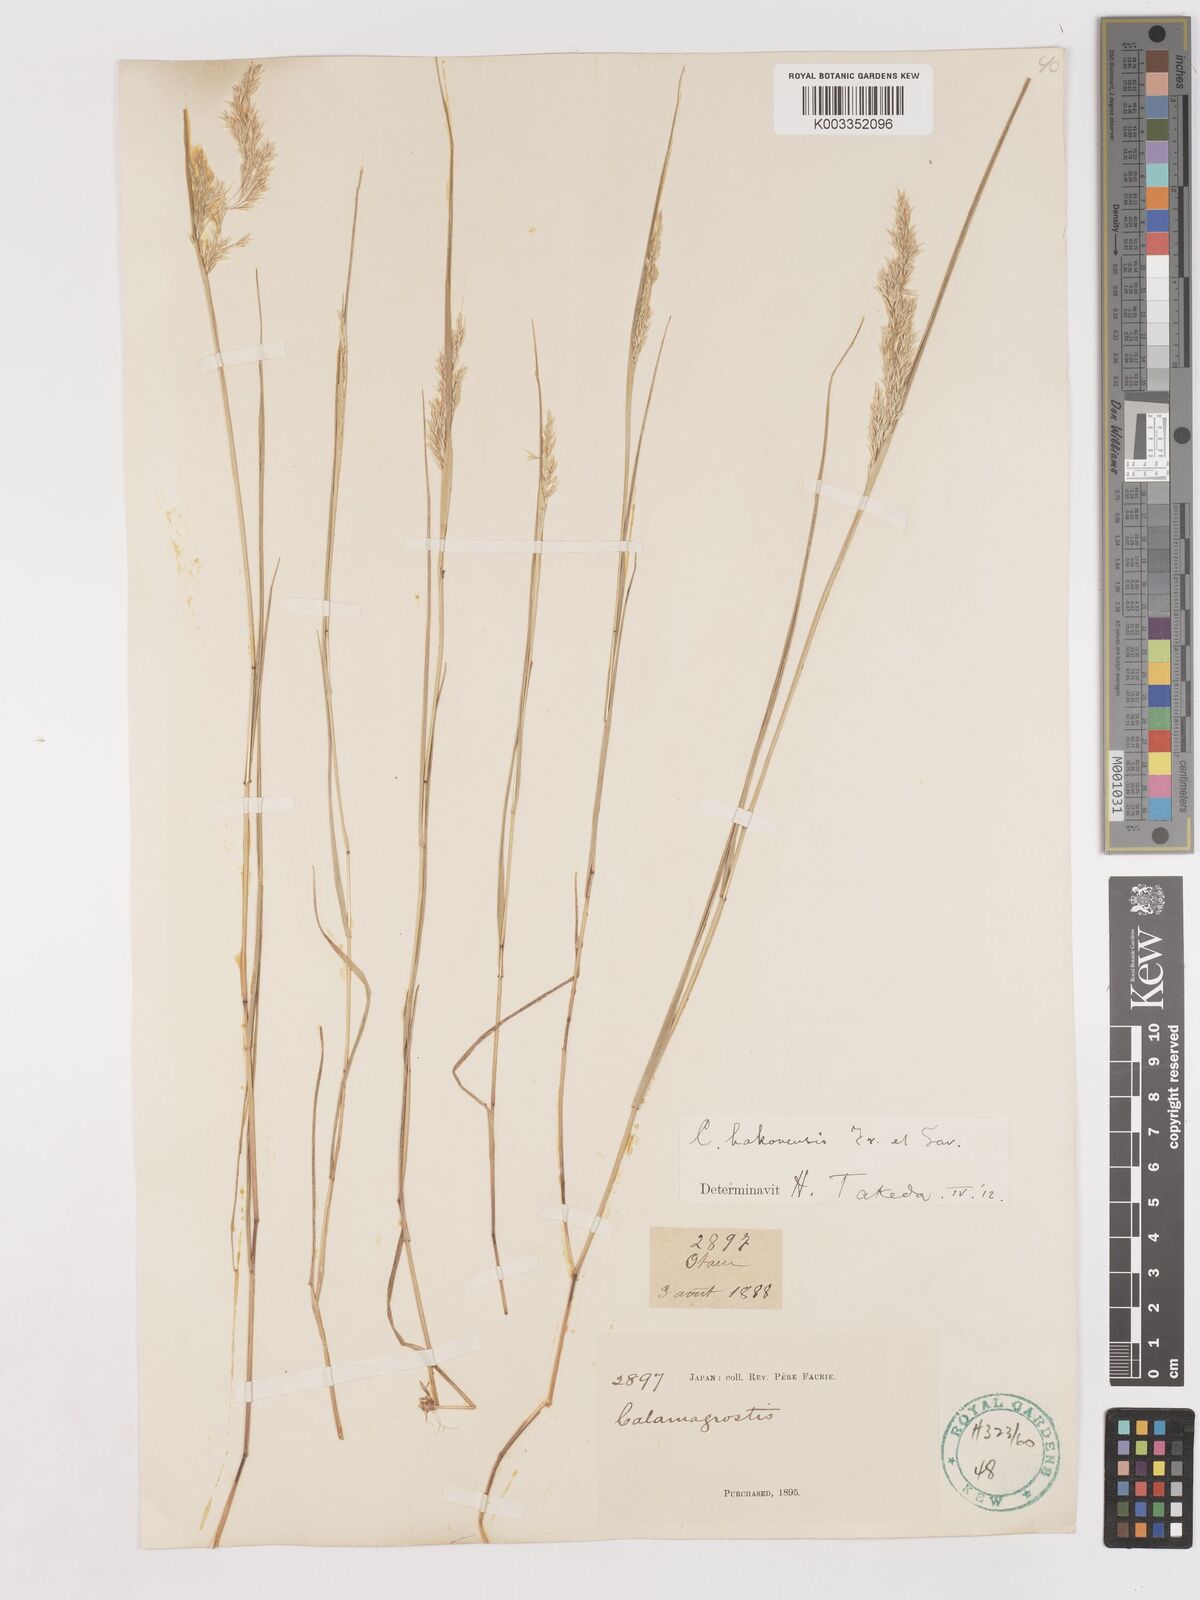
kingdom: Plantae
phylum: Tracheophyta
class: Liliopsida
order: Poales
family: Poaceae
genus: Calamagrostis
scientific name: Calamagrostis hakonensis
